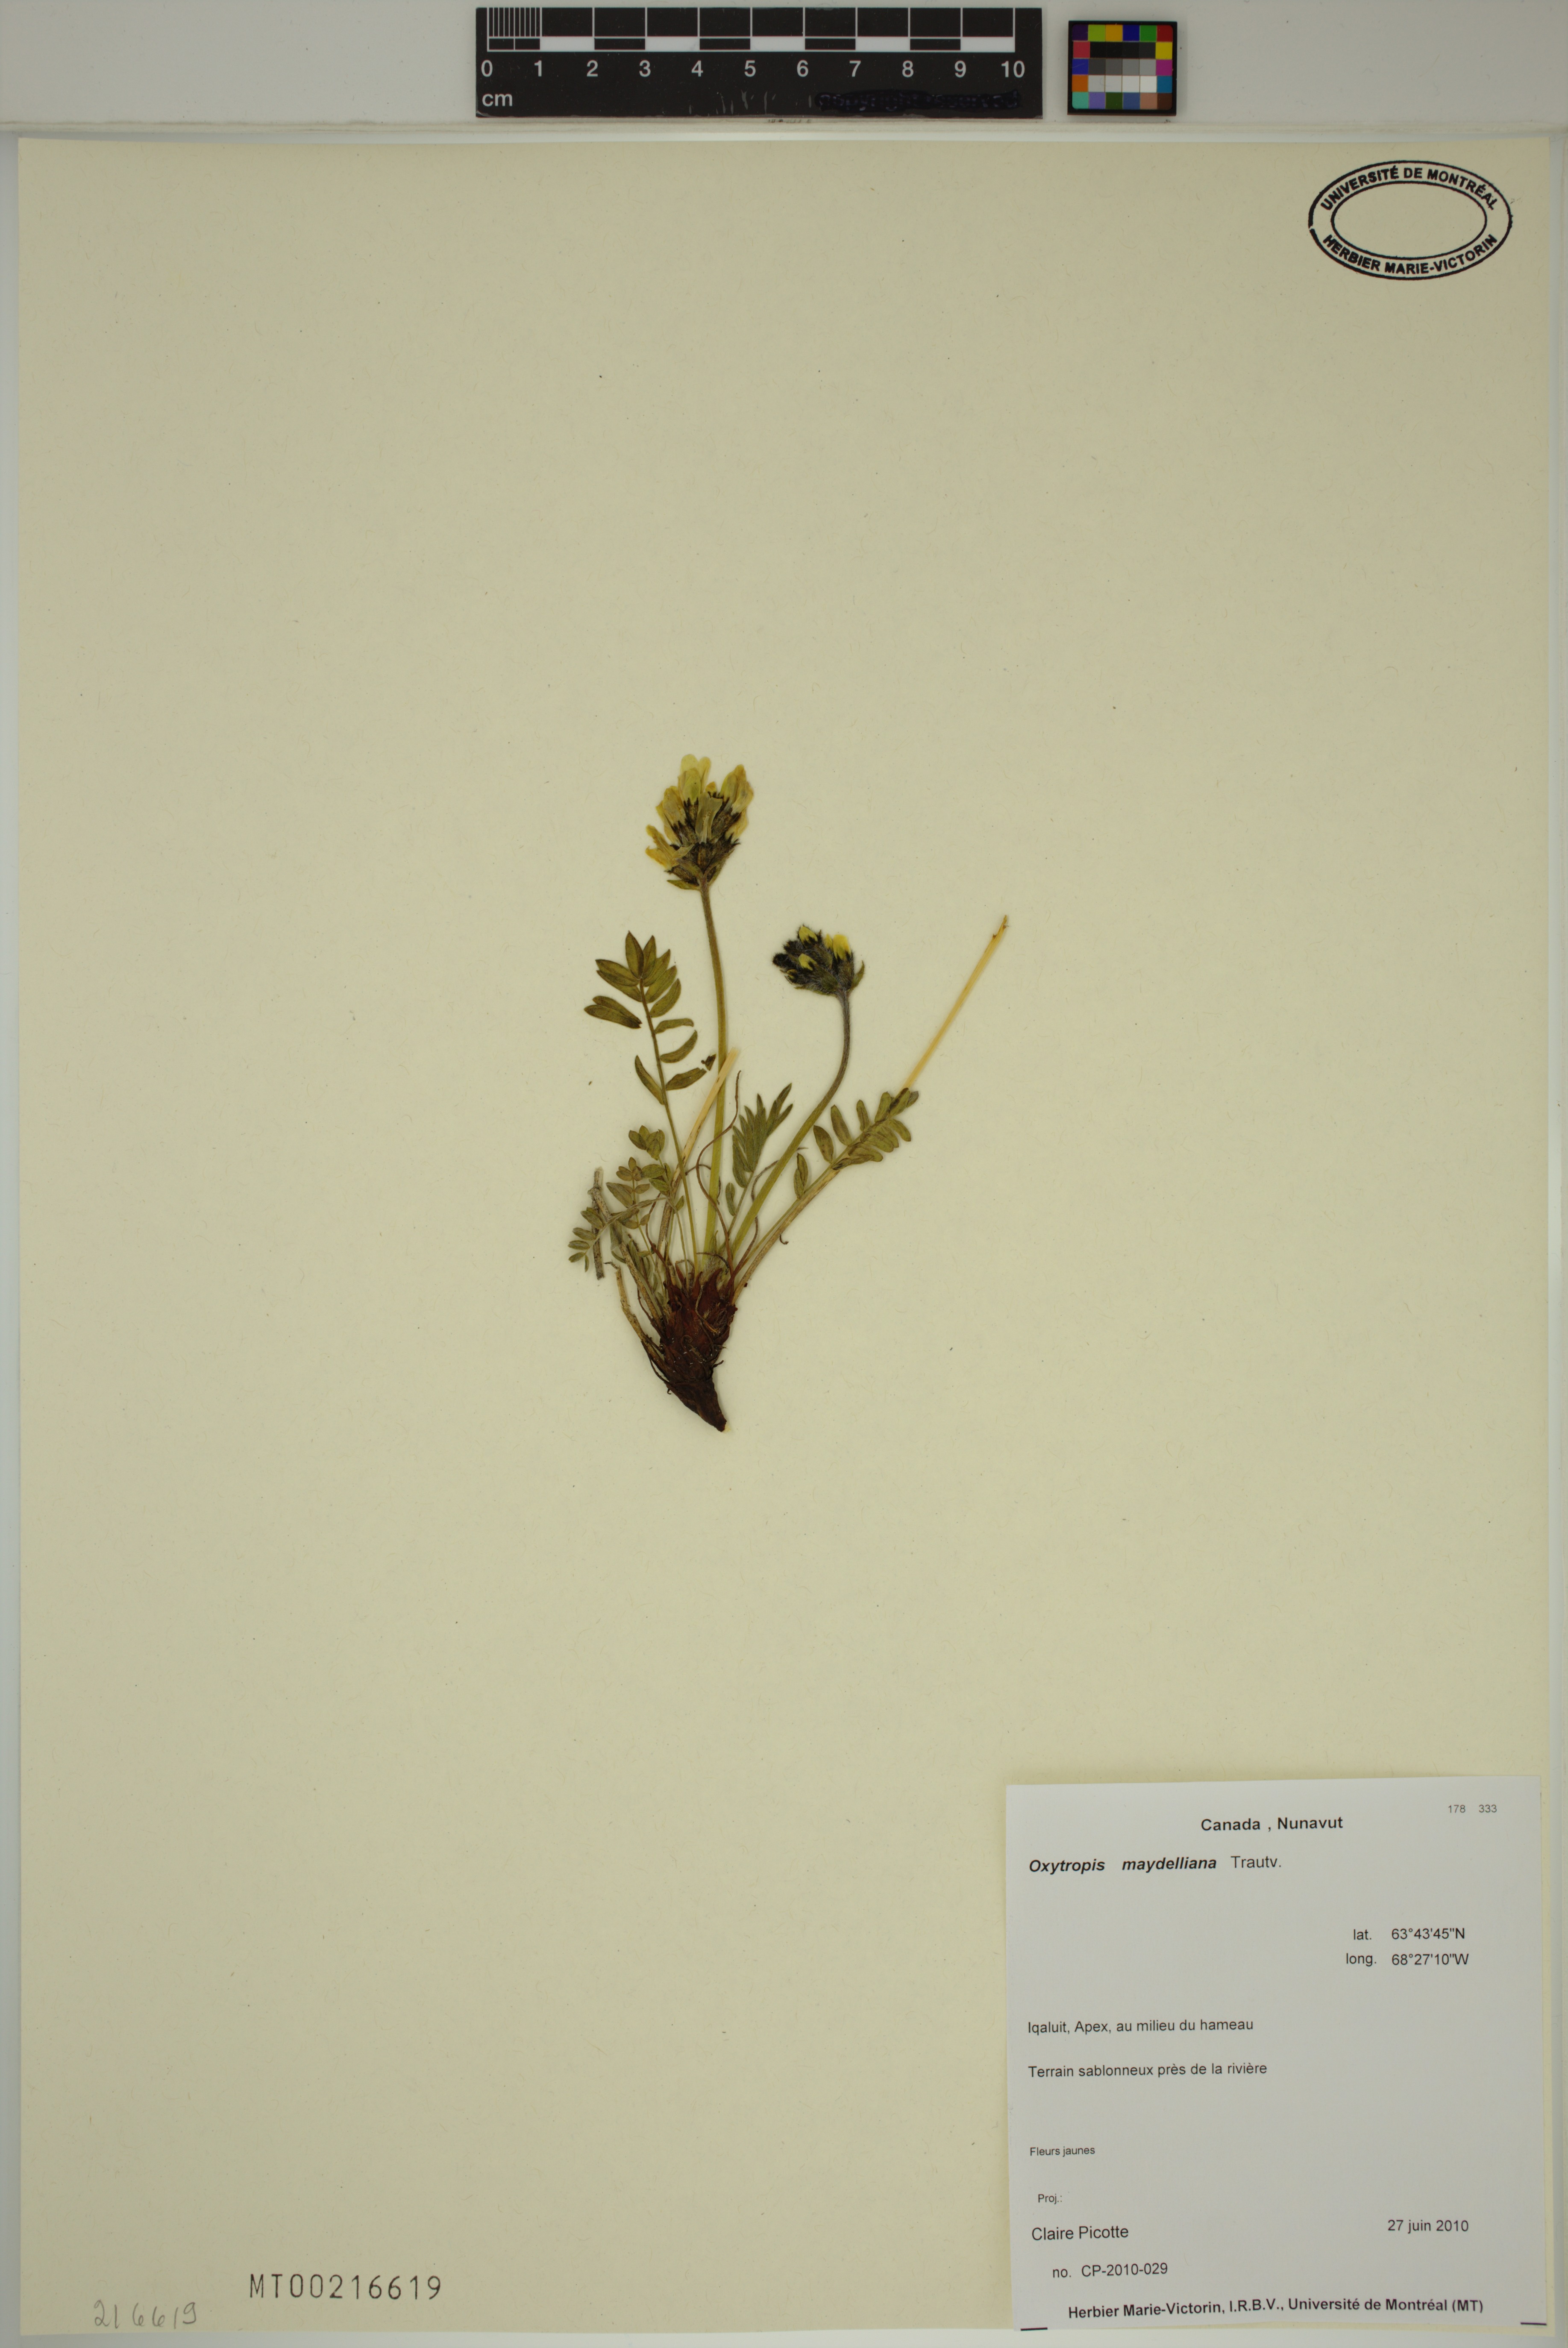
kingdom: Plantae
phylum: Tracheophyta
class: Magnoliopsida
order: Fabales
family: Fabaceae
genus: Oxytropis
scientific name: Oxytropis maydelliana
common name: Maydell's locoweed
